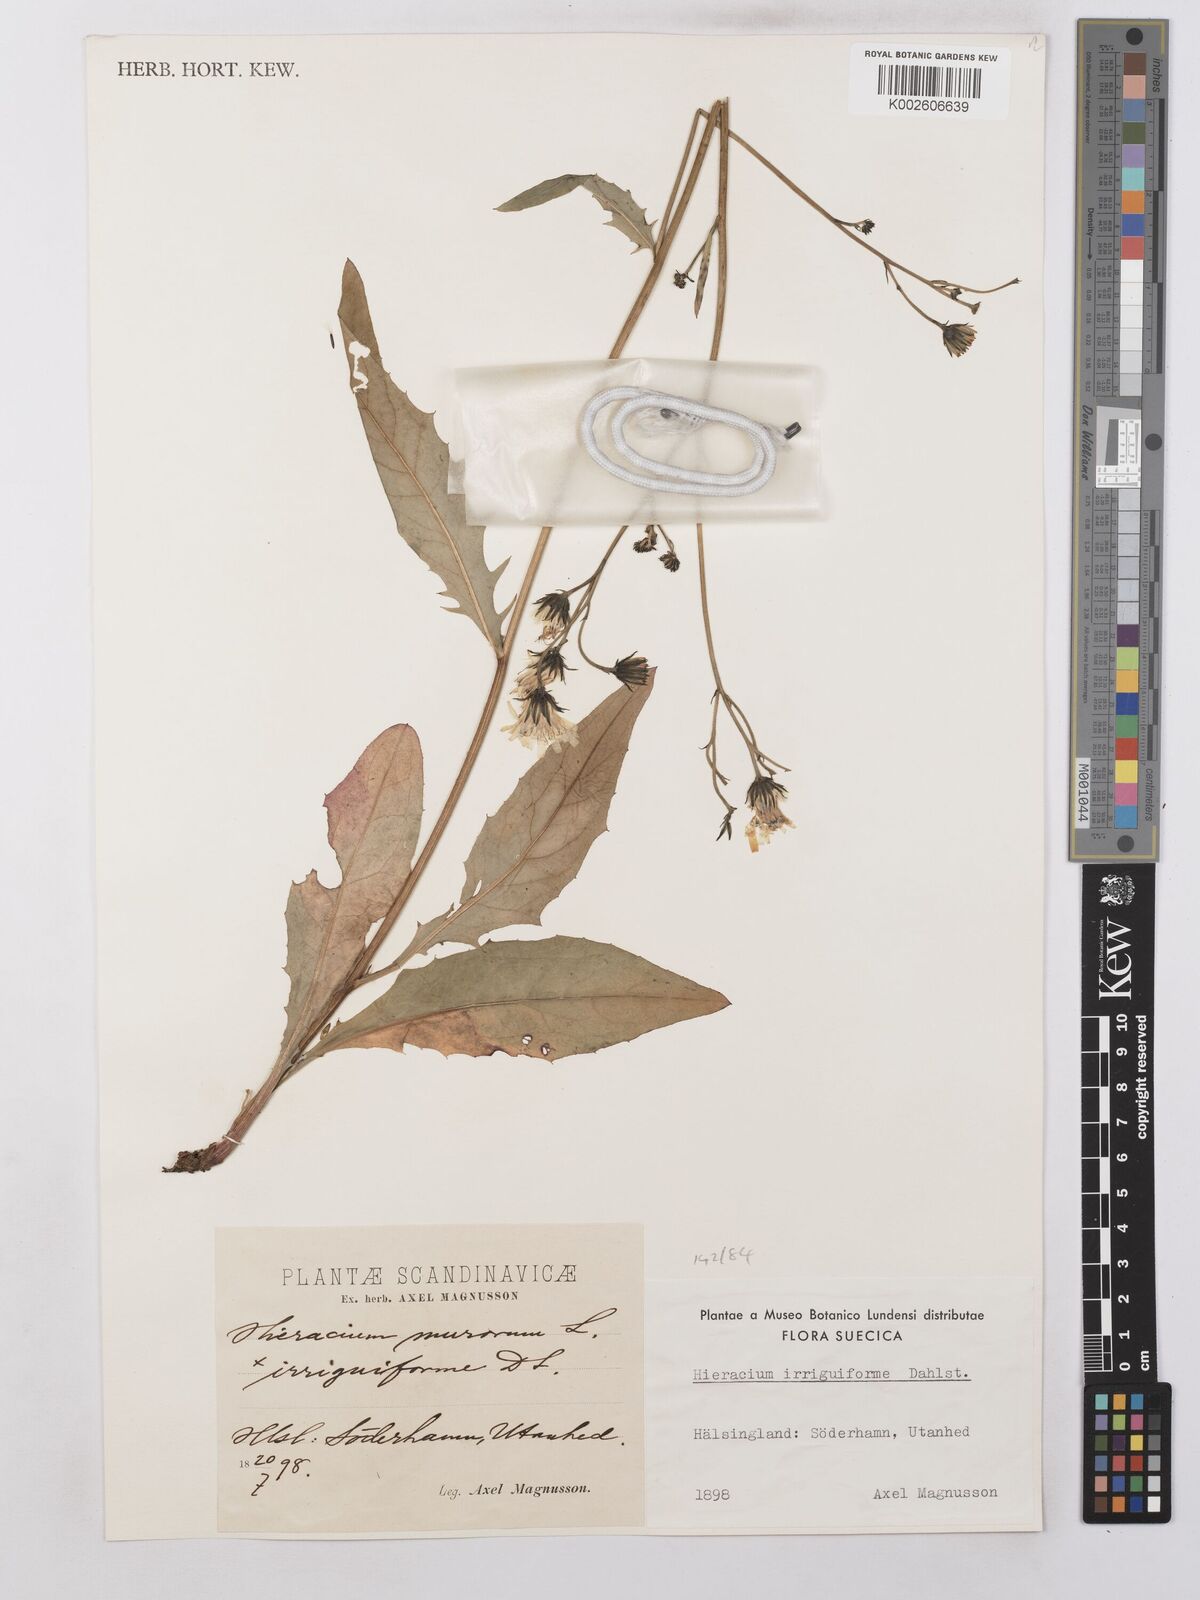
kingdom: Plantae
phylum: Tracheophyta
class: Magnoliopsida
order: Asterales
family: Asteraceae
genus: Hieracium
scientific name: Hieracium lachenalii
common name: Common hawkweed
